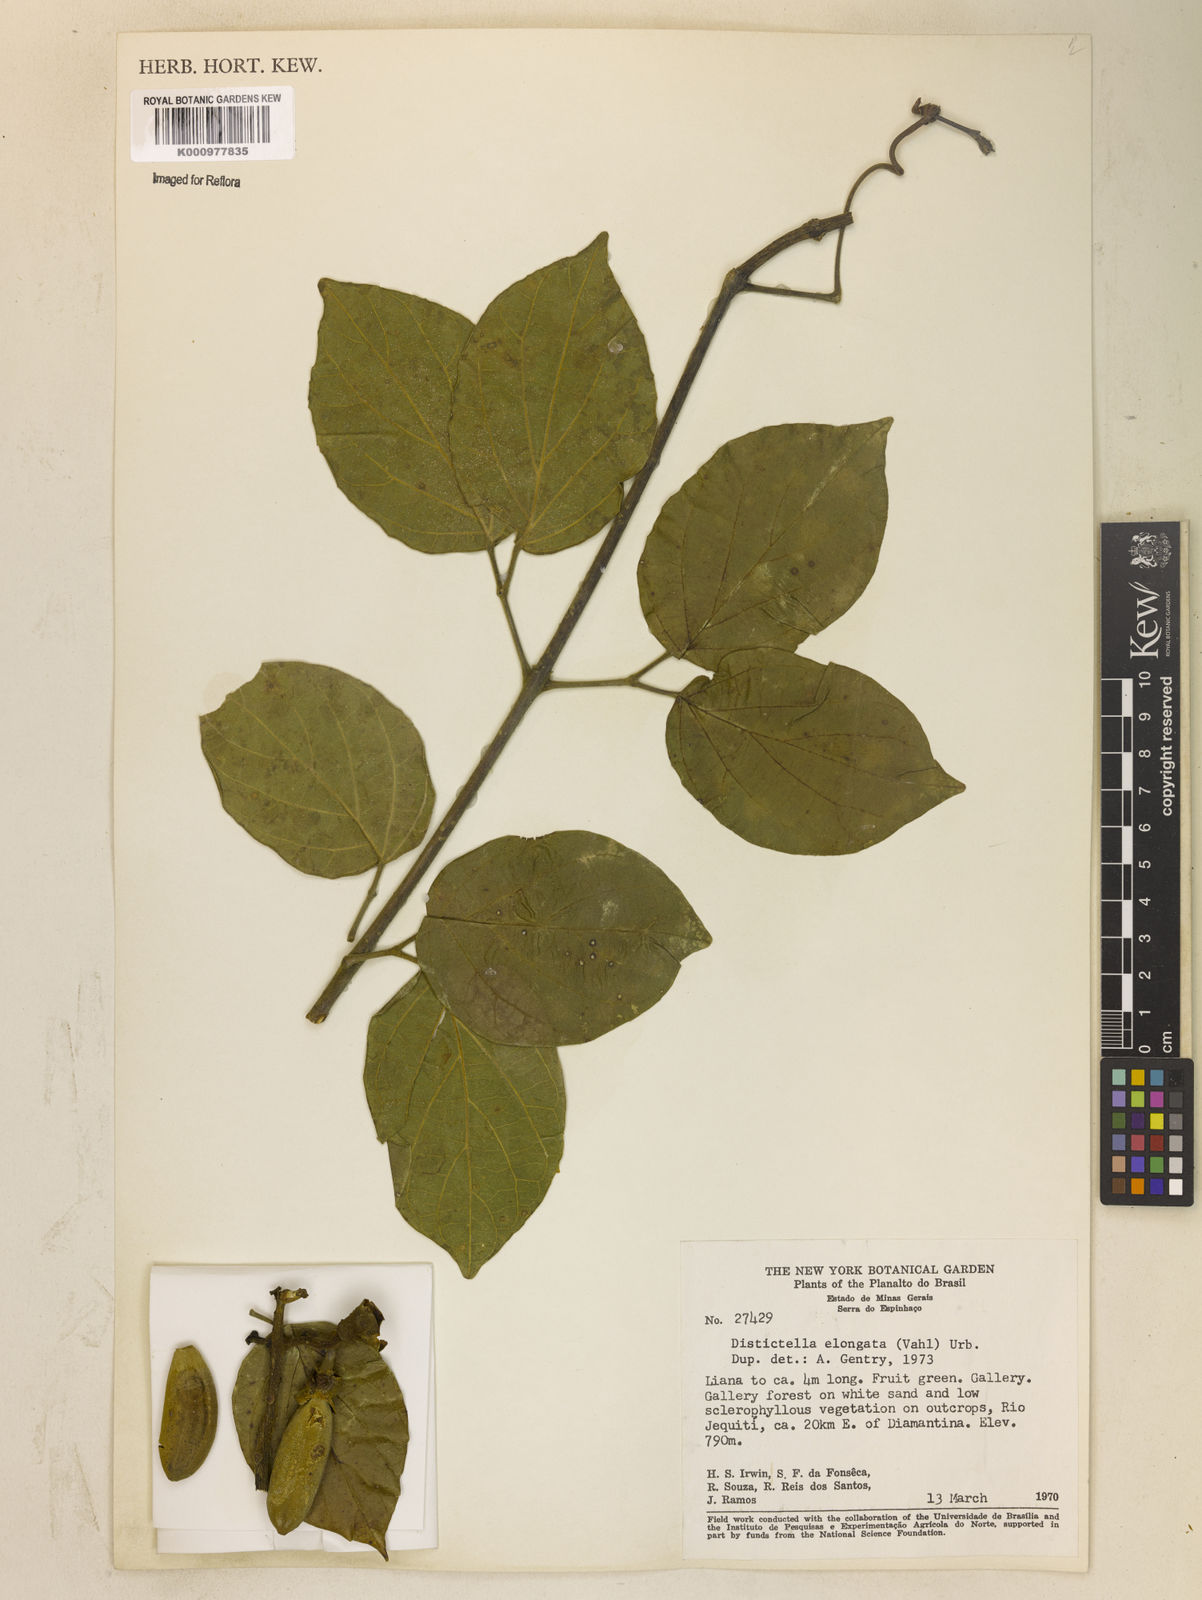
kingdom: Plantae
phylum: Tracheophyta
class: Magnoliopsida
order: Lamiales
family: Bignoniaceae
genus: Amphilophium
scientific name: Amphilophium elongatum
